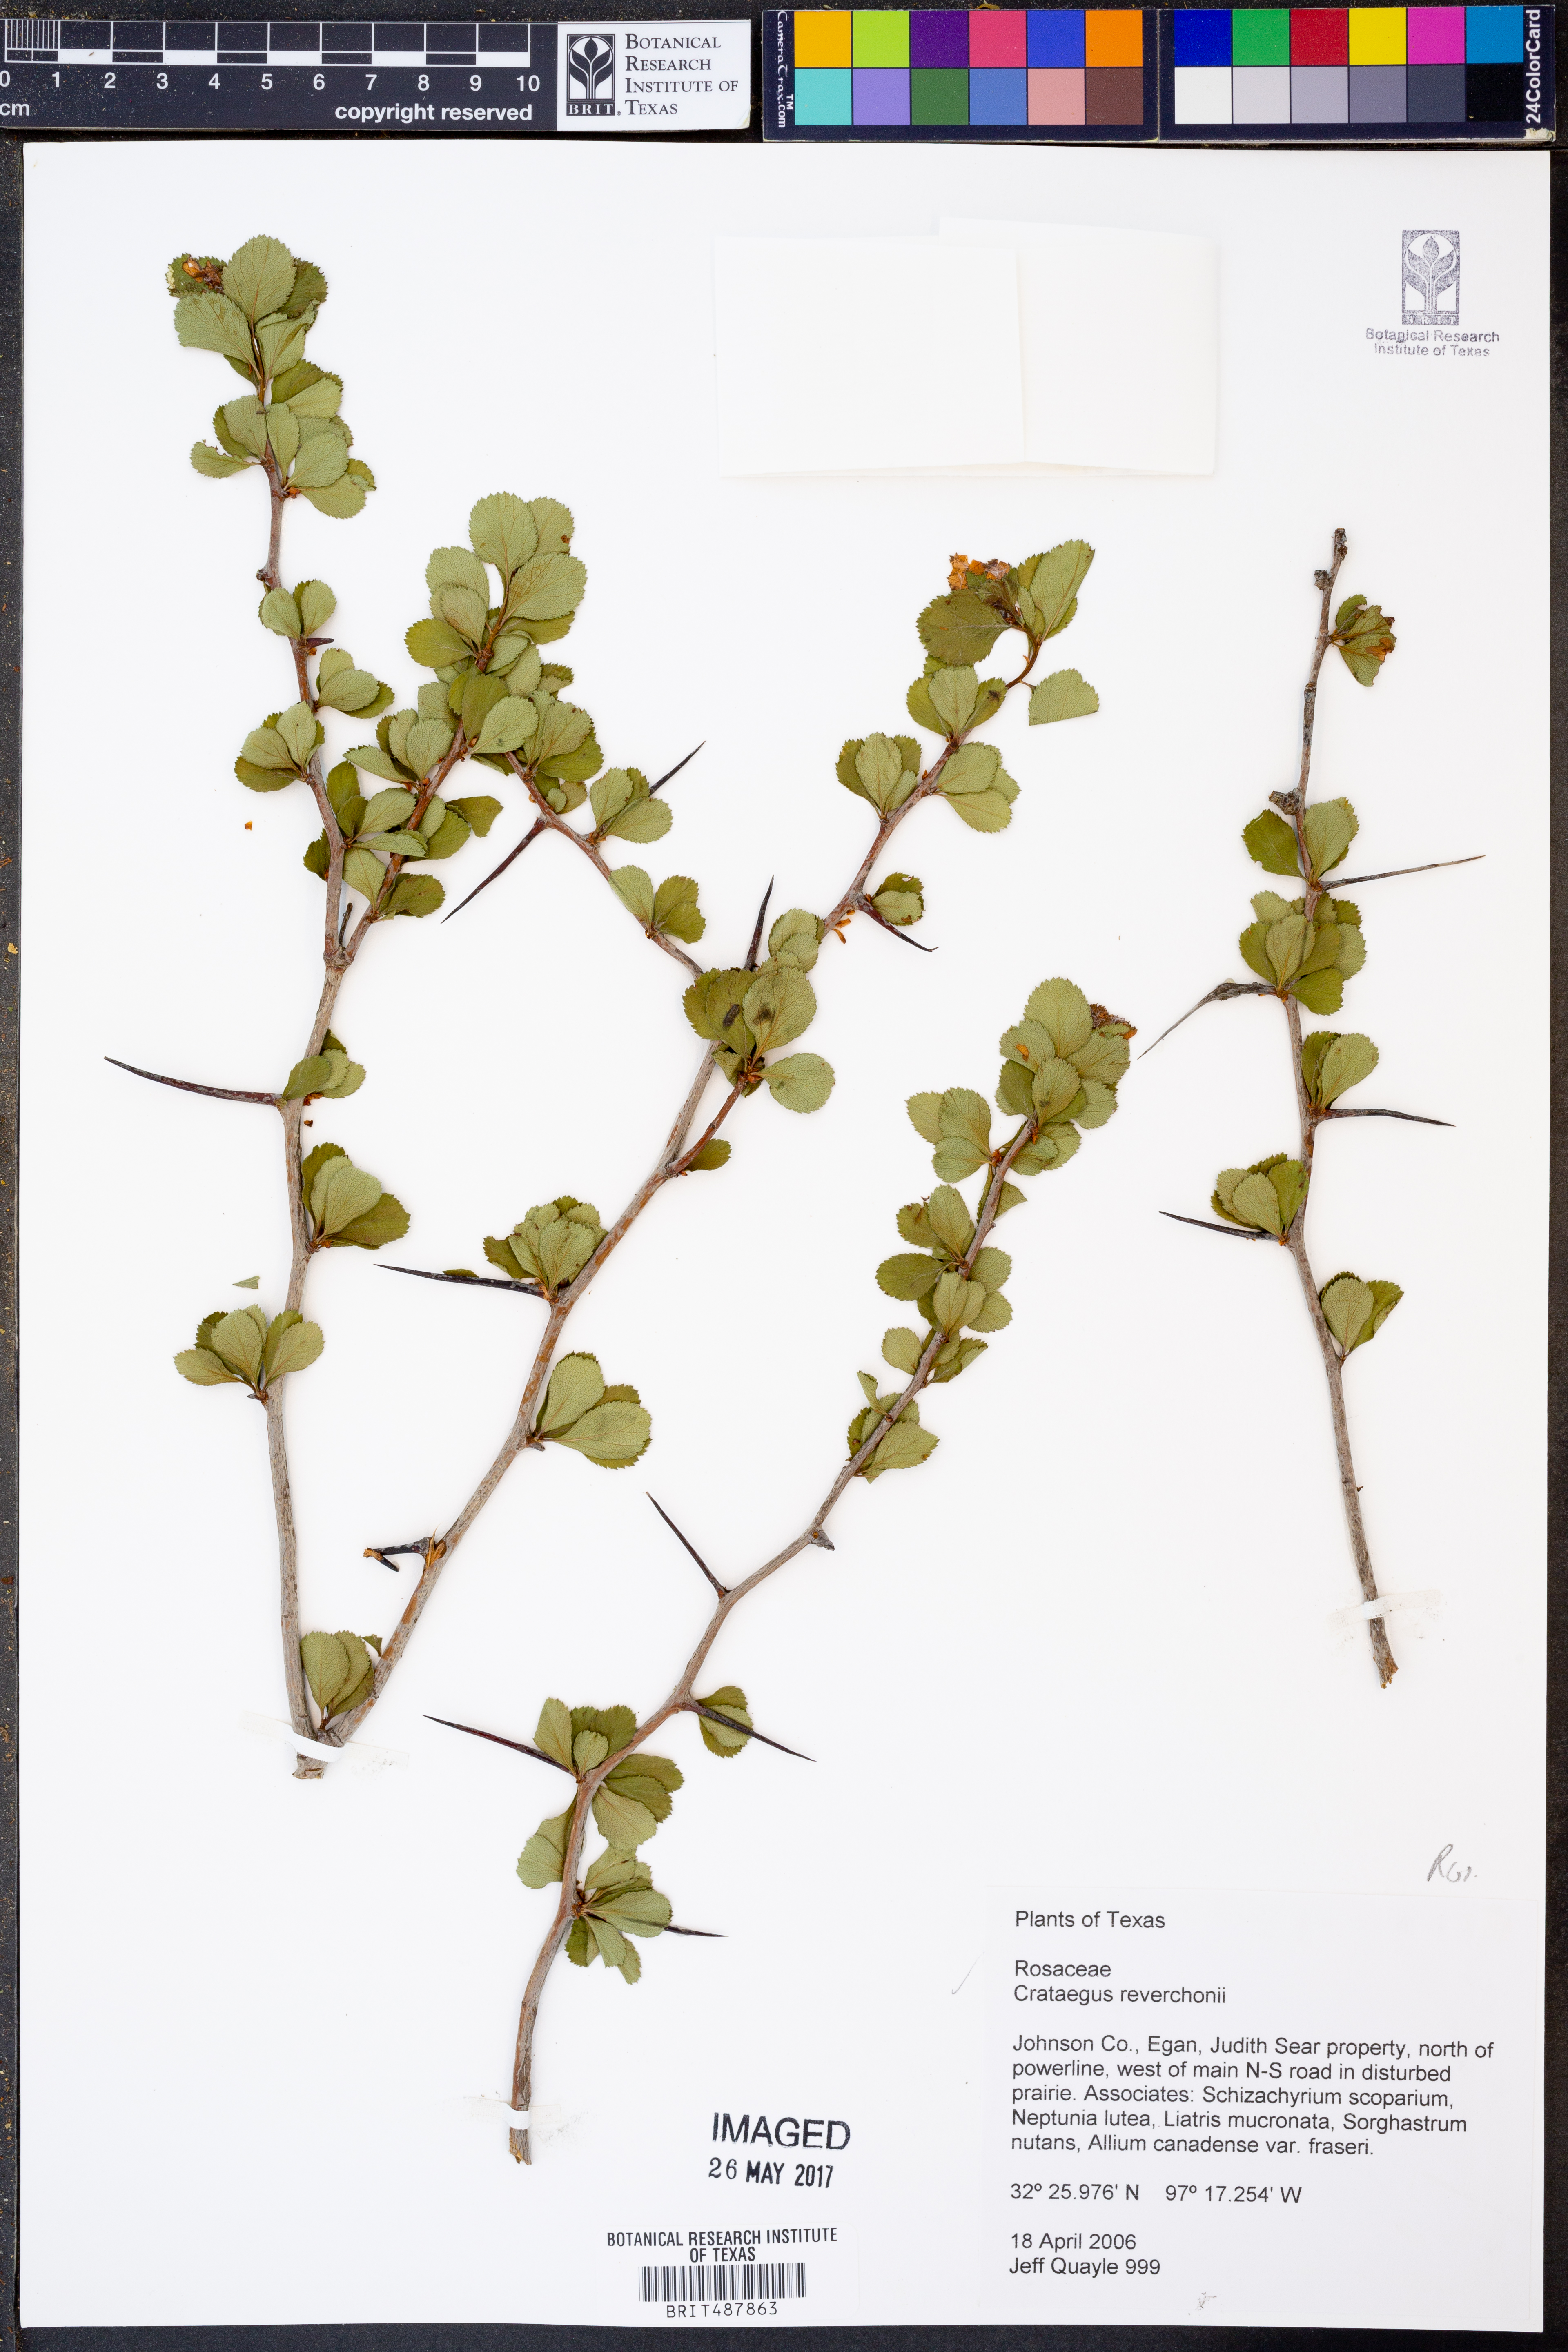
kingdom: Plantae
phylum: Tracheophyta
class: Magnoliopsida
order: Rosales
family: Rosaceae
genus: Crataegus
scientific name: Crataegus reverchonii
